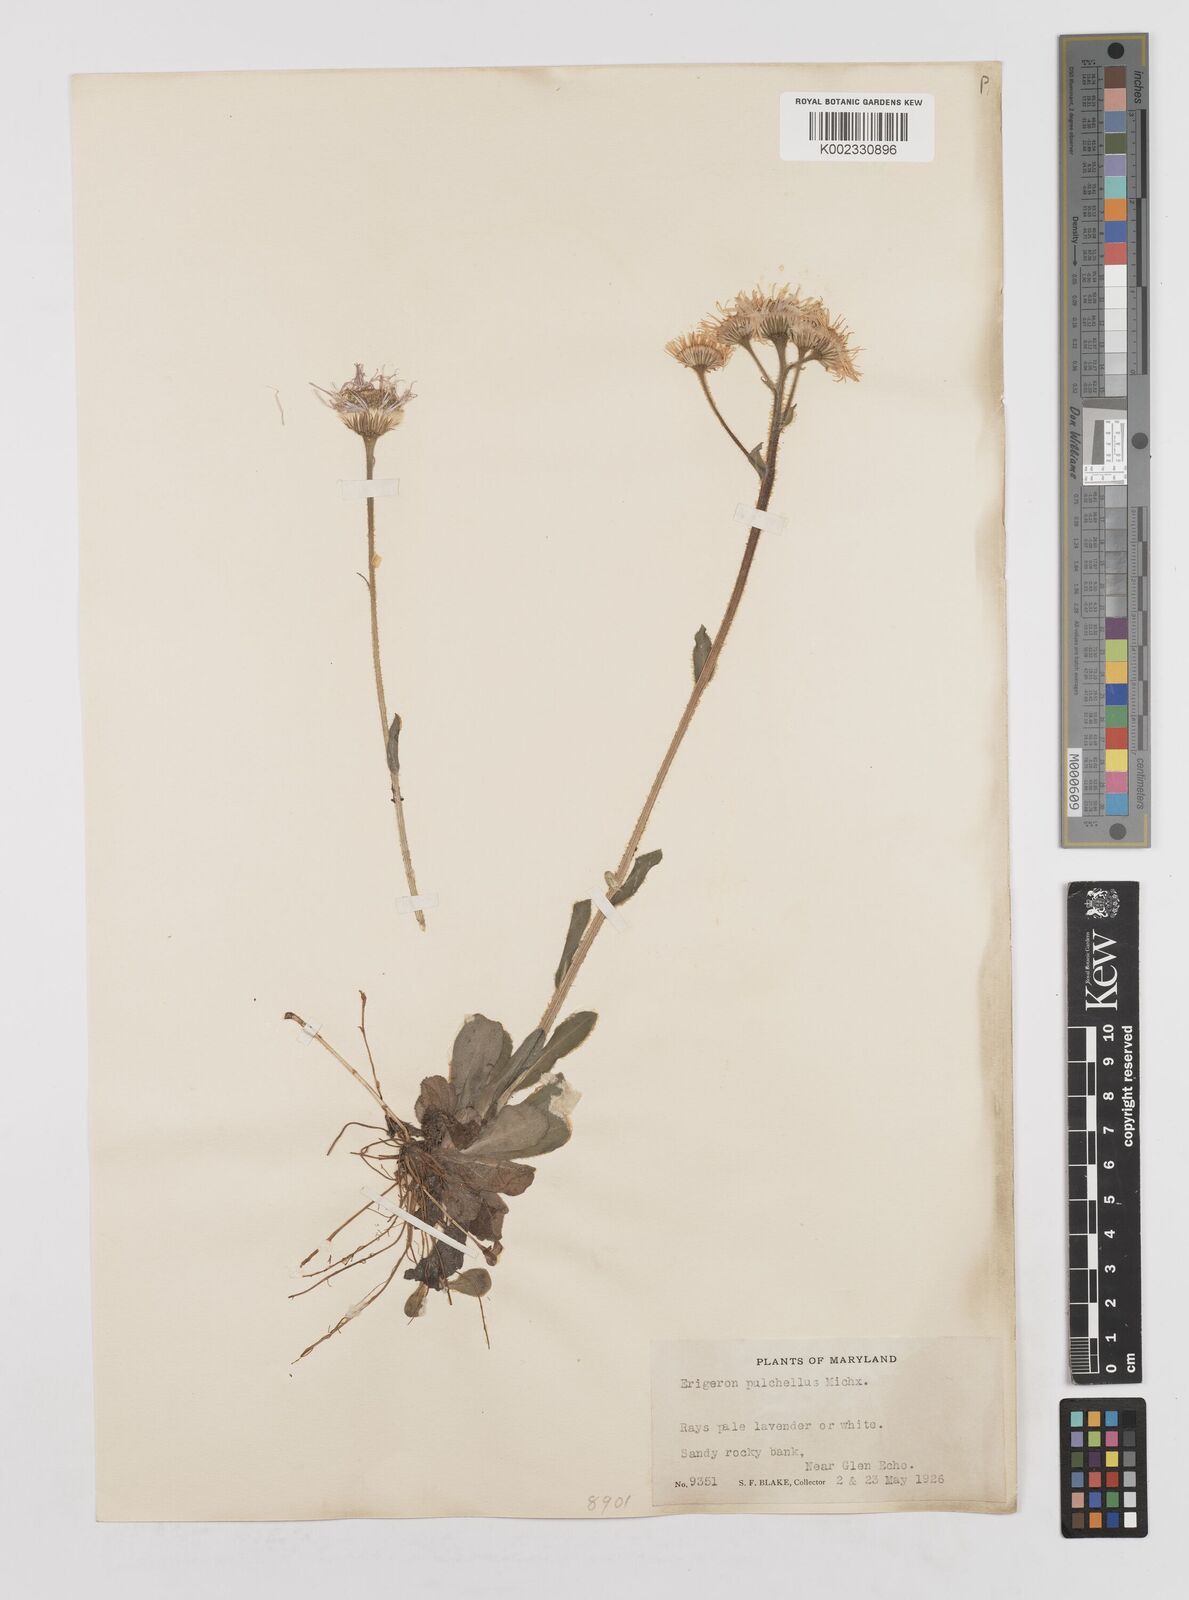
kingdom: Plantae
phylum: Tracheophyta
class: Magnoliopsida
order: Asterales
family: Asteraceae
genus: Erigeron
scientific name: Erigeron pulchellus
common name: Hairy fleabane
